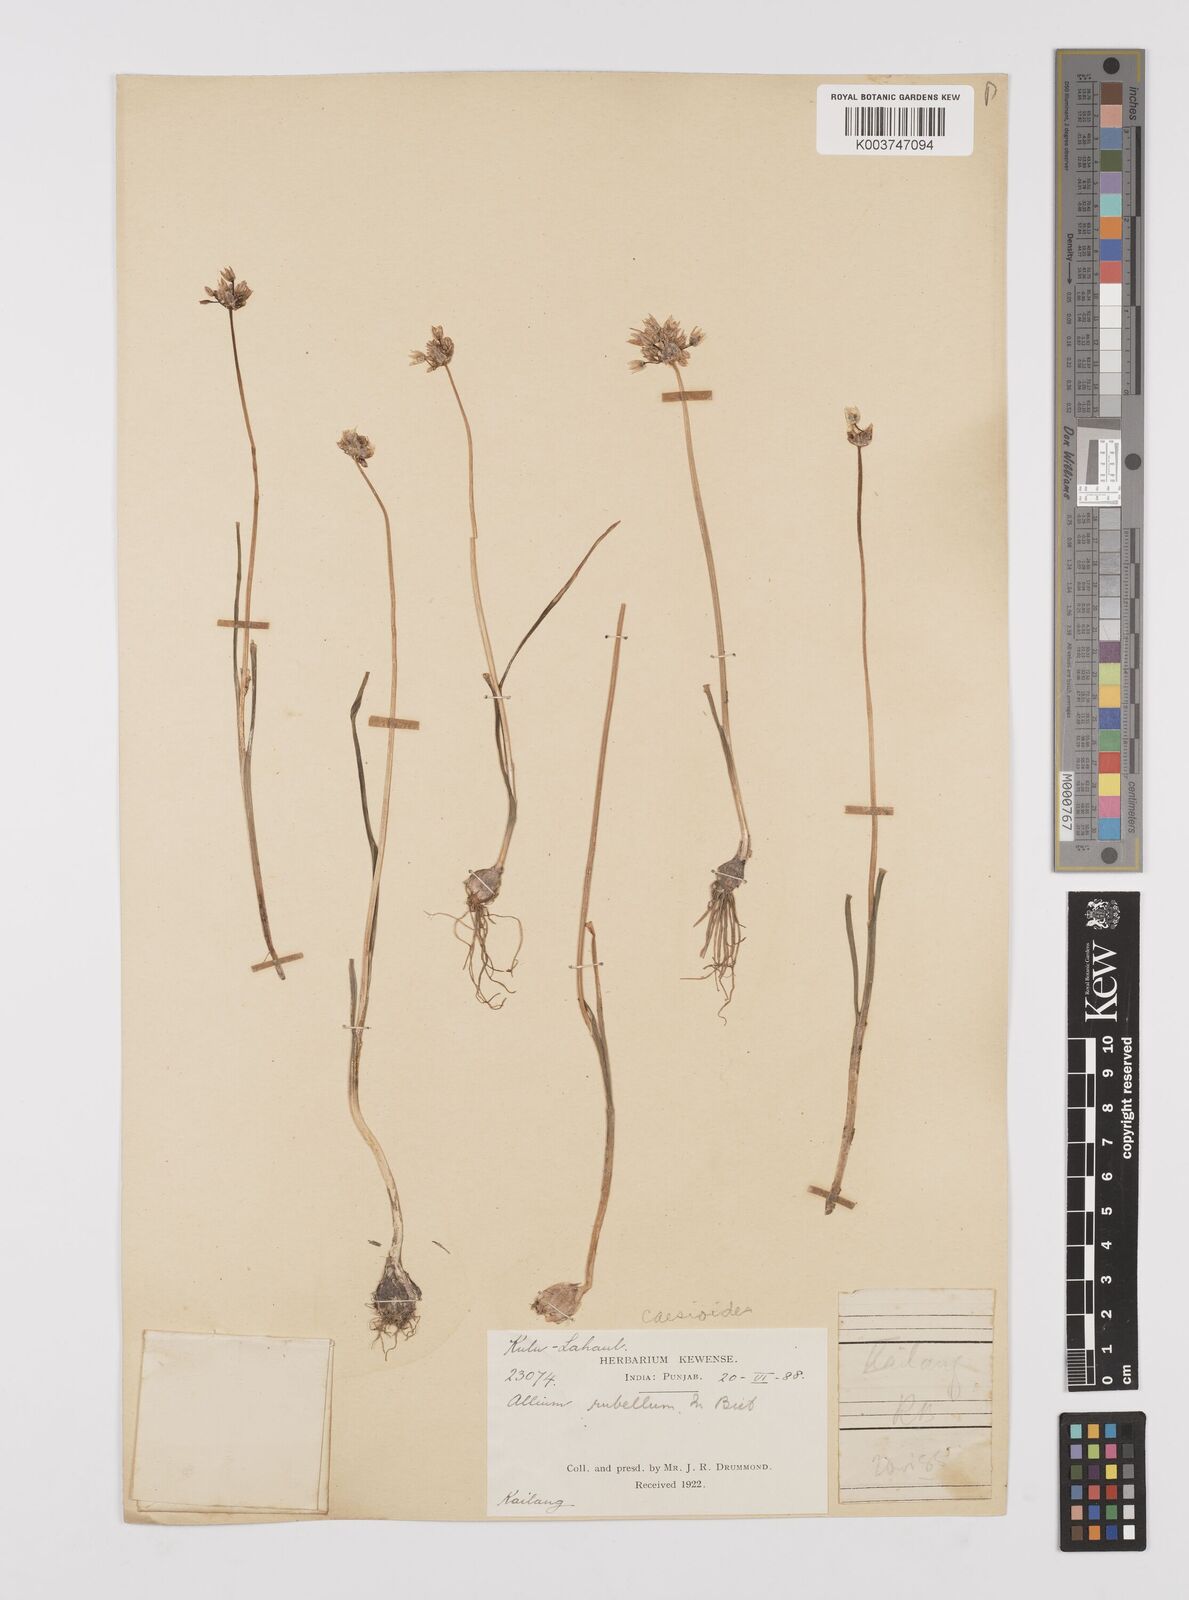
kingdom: Plantae
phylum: Tracheophyta
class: Liliopsida
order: Asparagales
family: Amaryllidaceae
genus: Allium
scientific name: Allium caesioides
